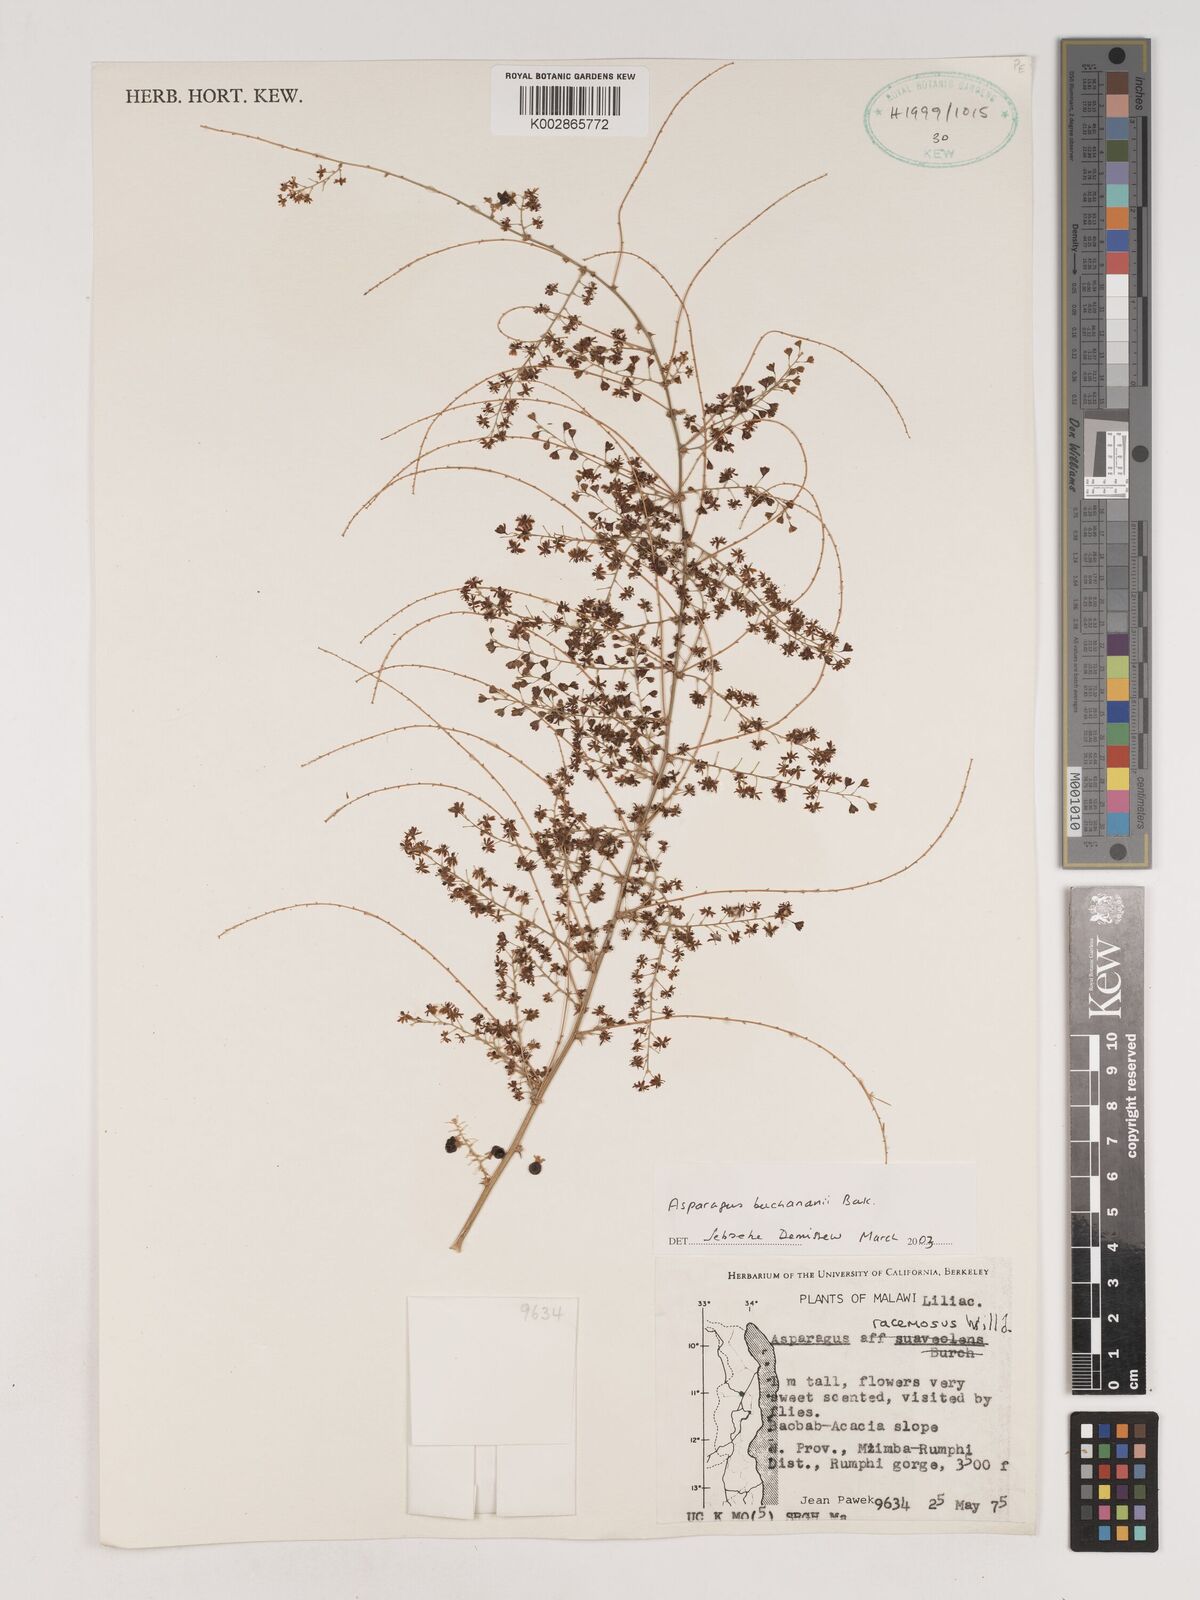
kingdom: Plantae
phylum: Tracheophyta
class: Liliopsida
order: Asparagales
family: Asparagaceae
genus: Asparagus
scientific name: Asparagus buchananii
